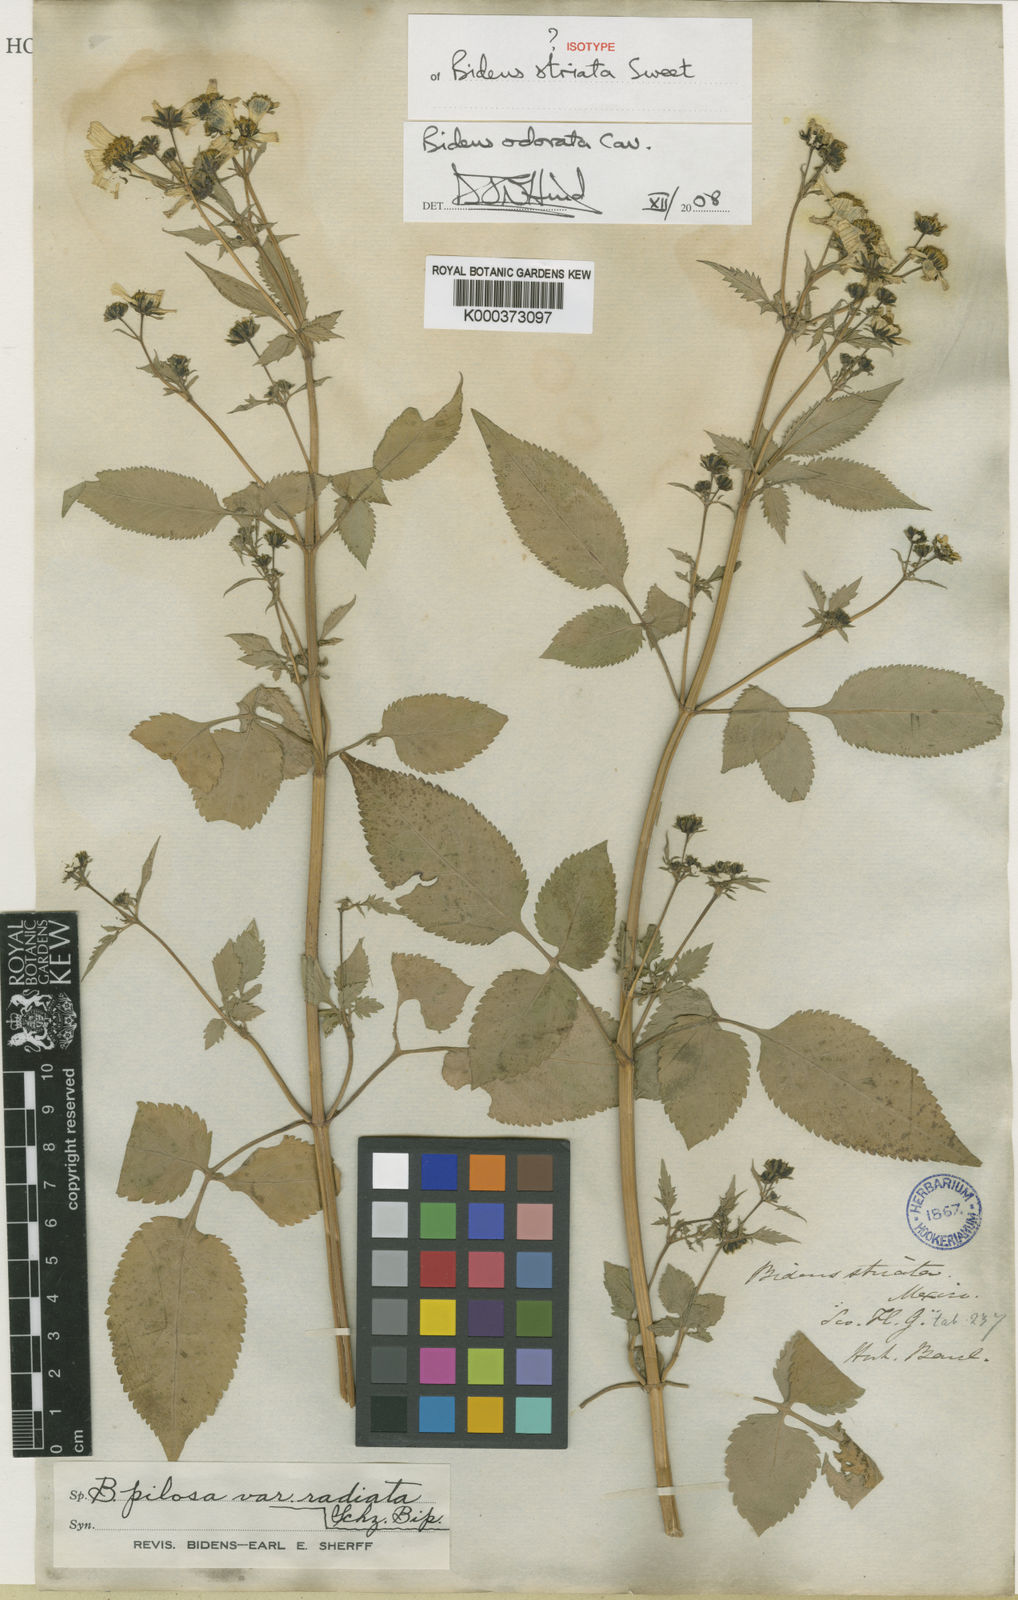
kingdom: Plantae
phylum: Tracheophyta
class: Magnoliopsida
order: Asterales
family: Asteraceae
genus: Bidens
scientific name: Bidens pilosa
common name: Black-jack
